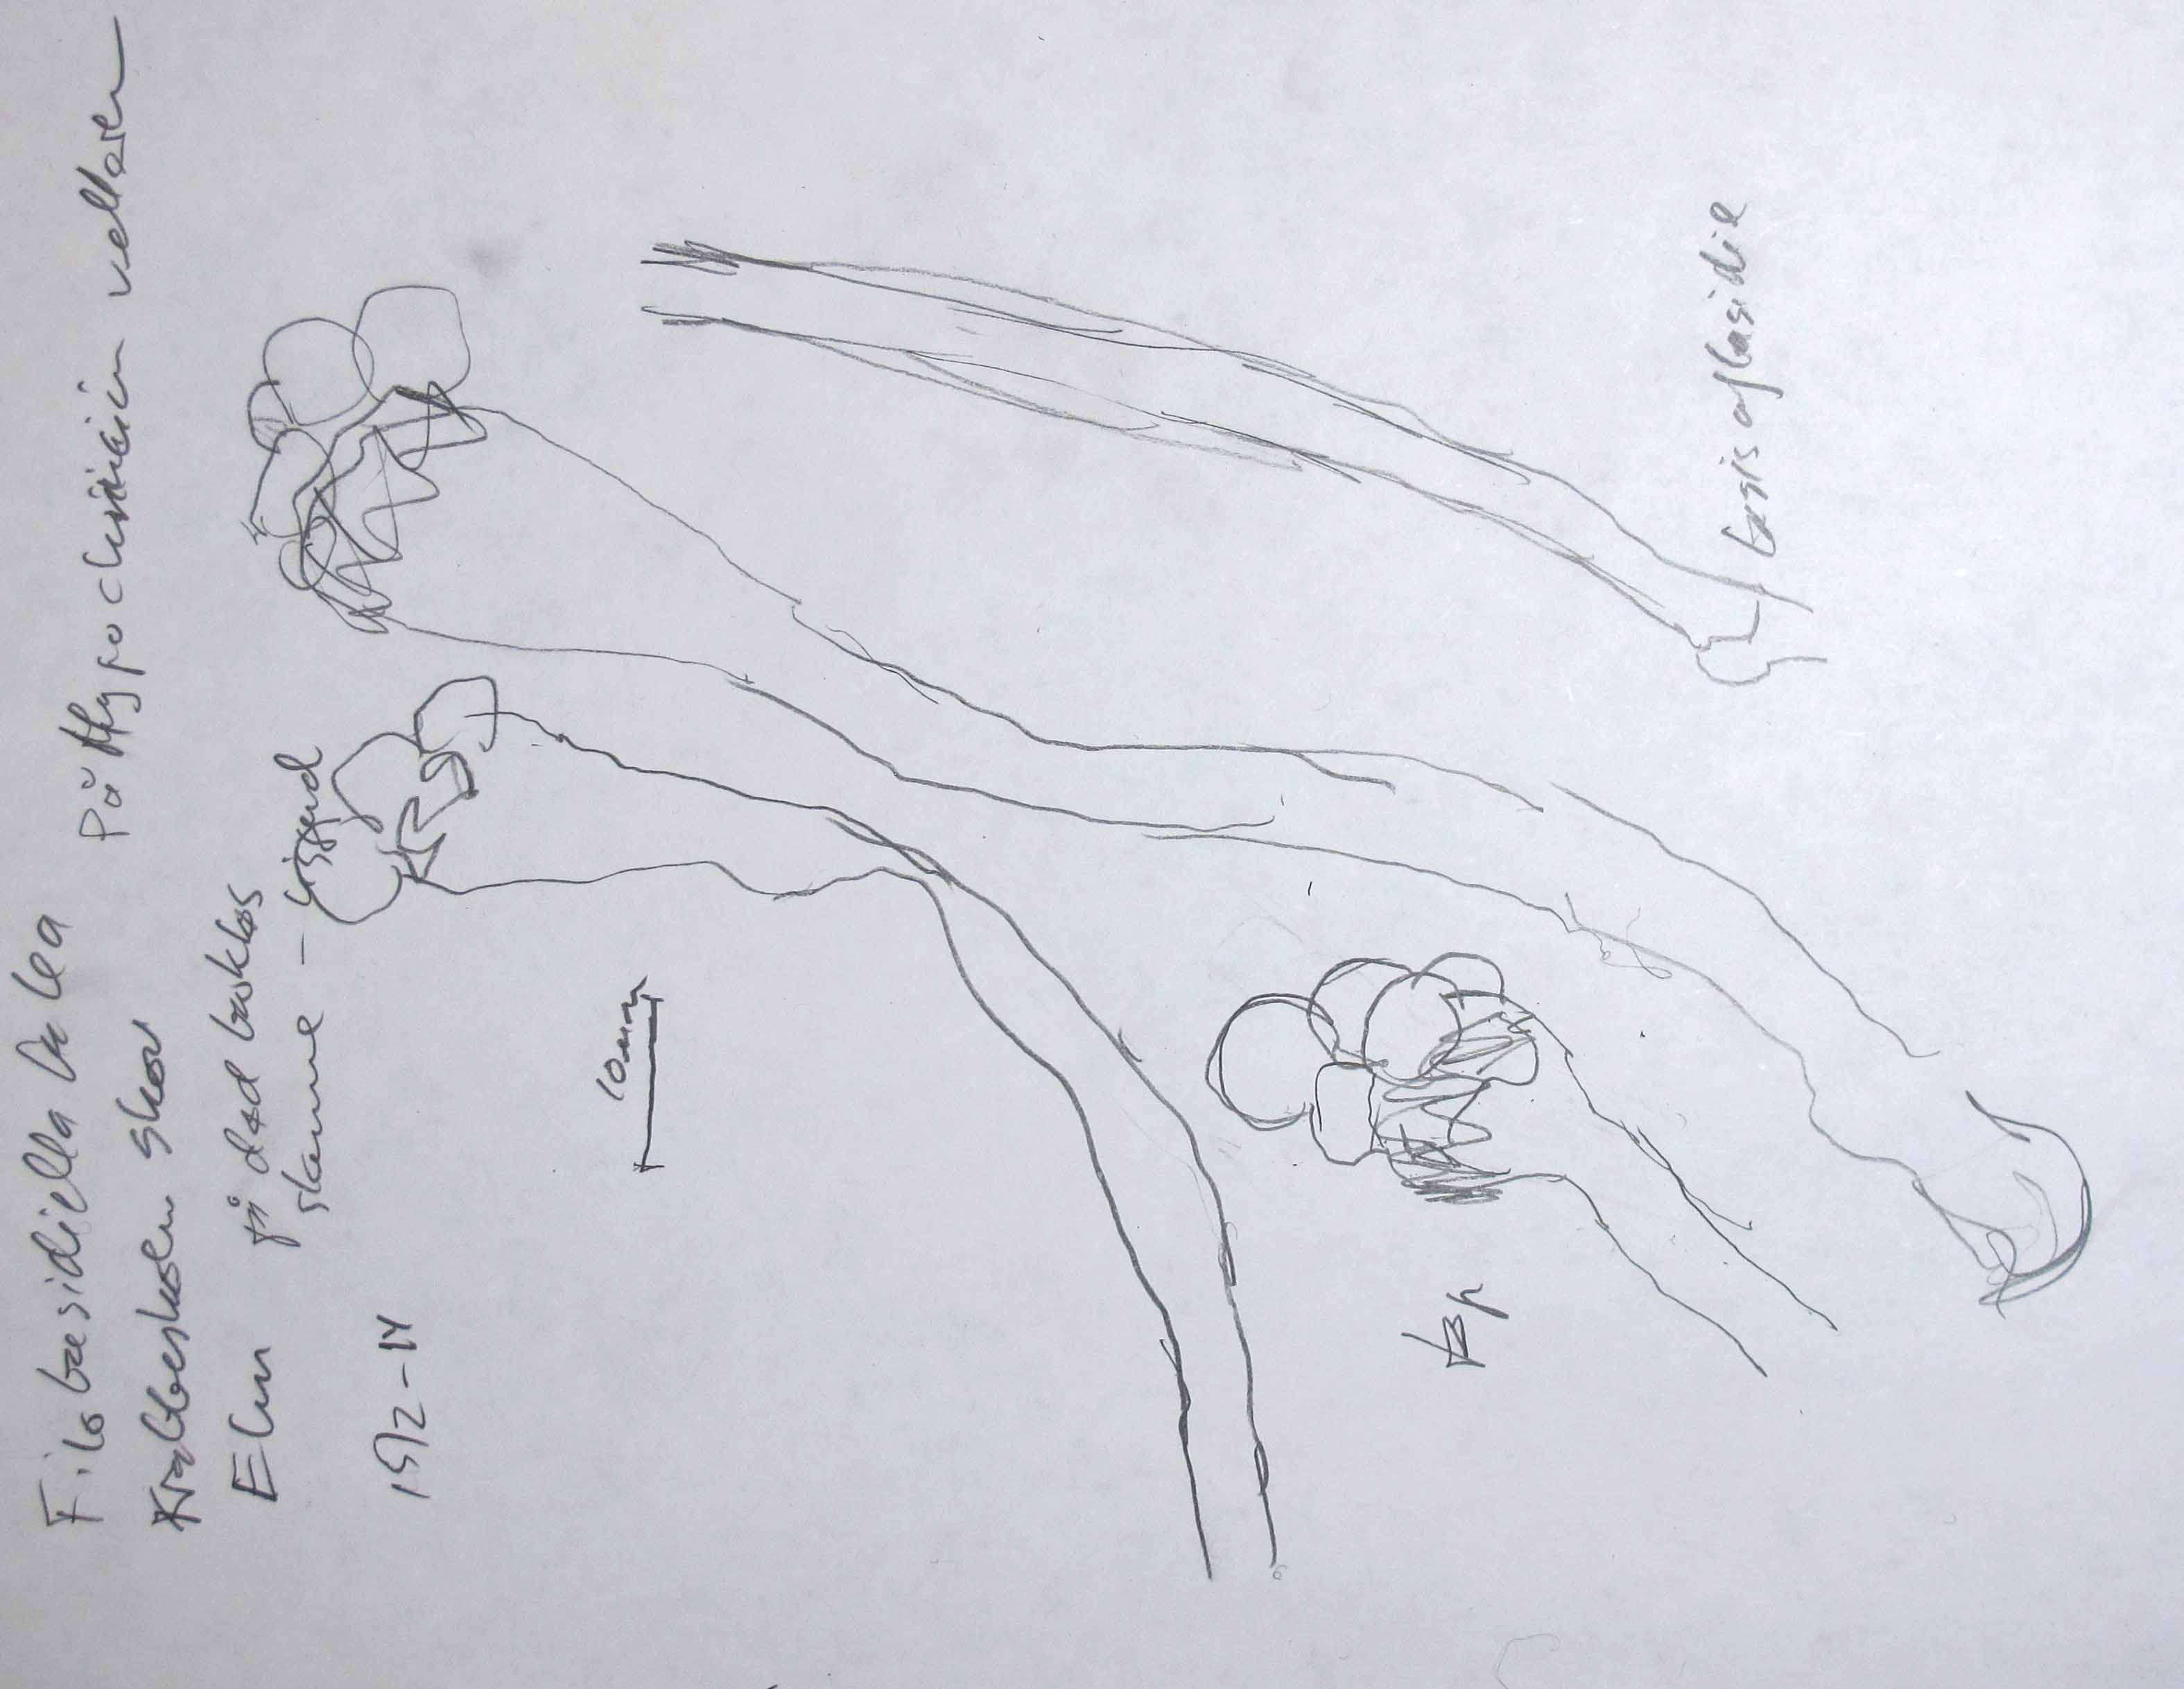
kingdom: Fungi
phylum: Basidiomycota
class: Tremellomycetes
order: Tremellales
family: Cryptococcaceae
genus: Cryptococcus
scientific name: Cryptococcus luteus
